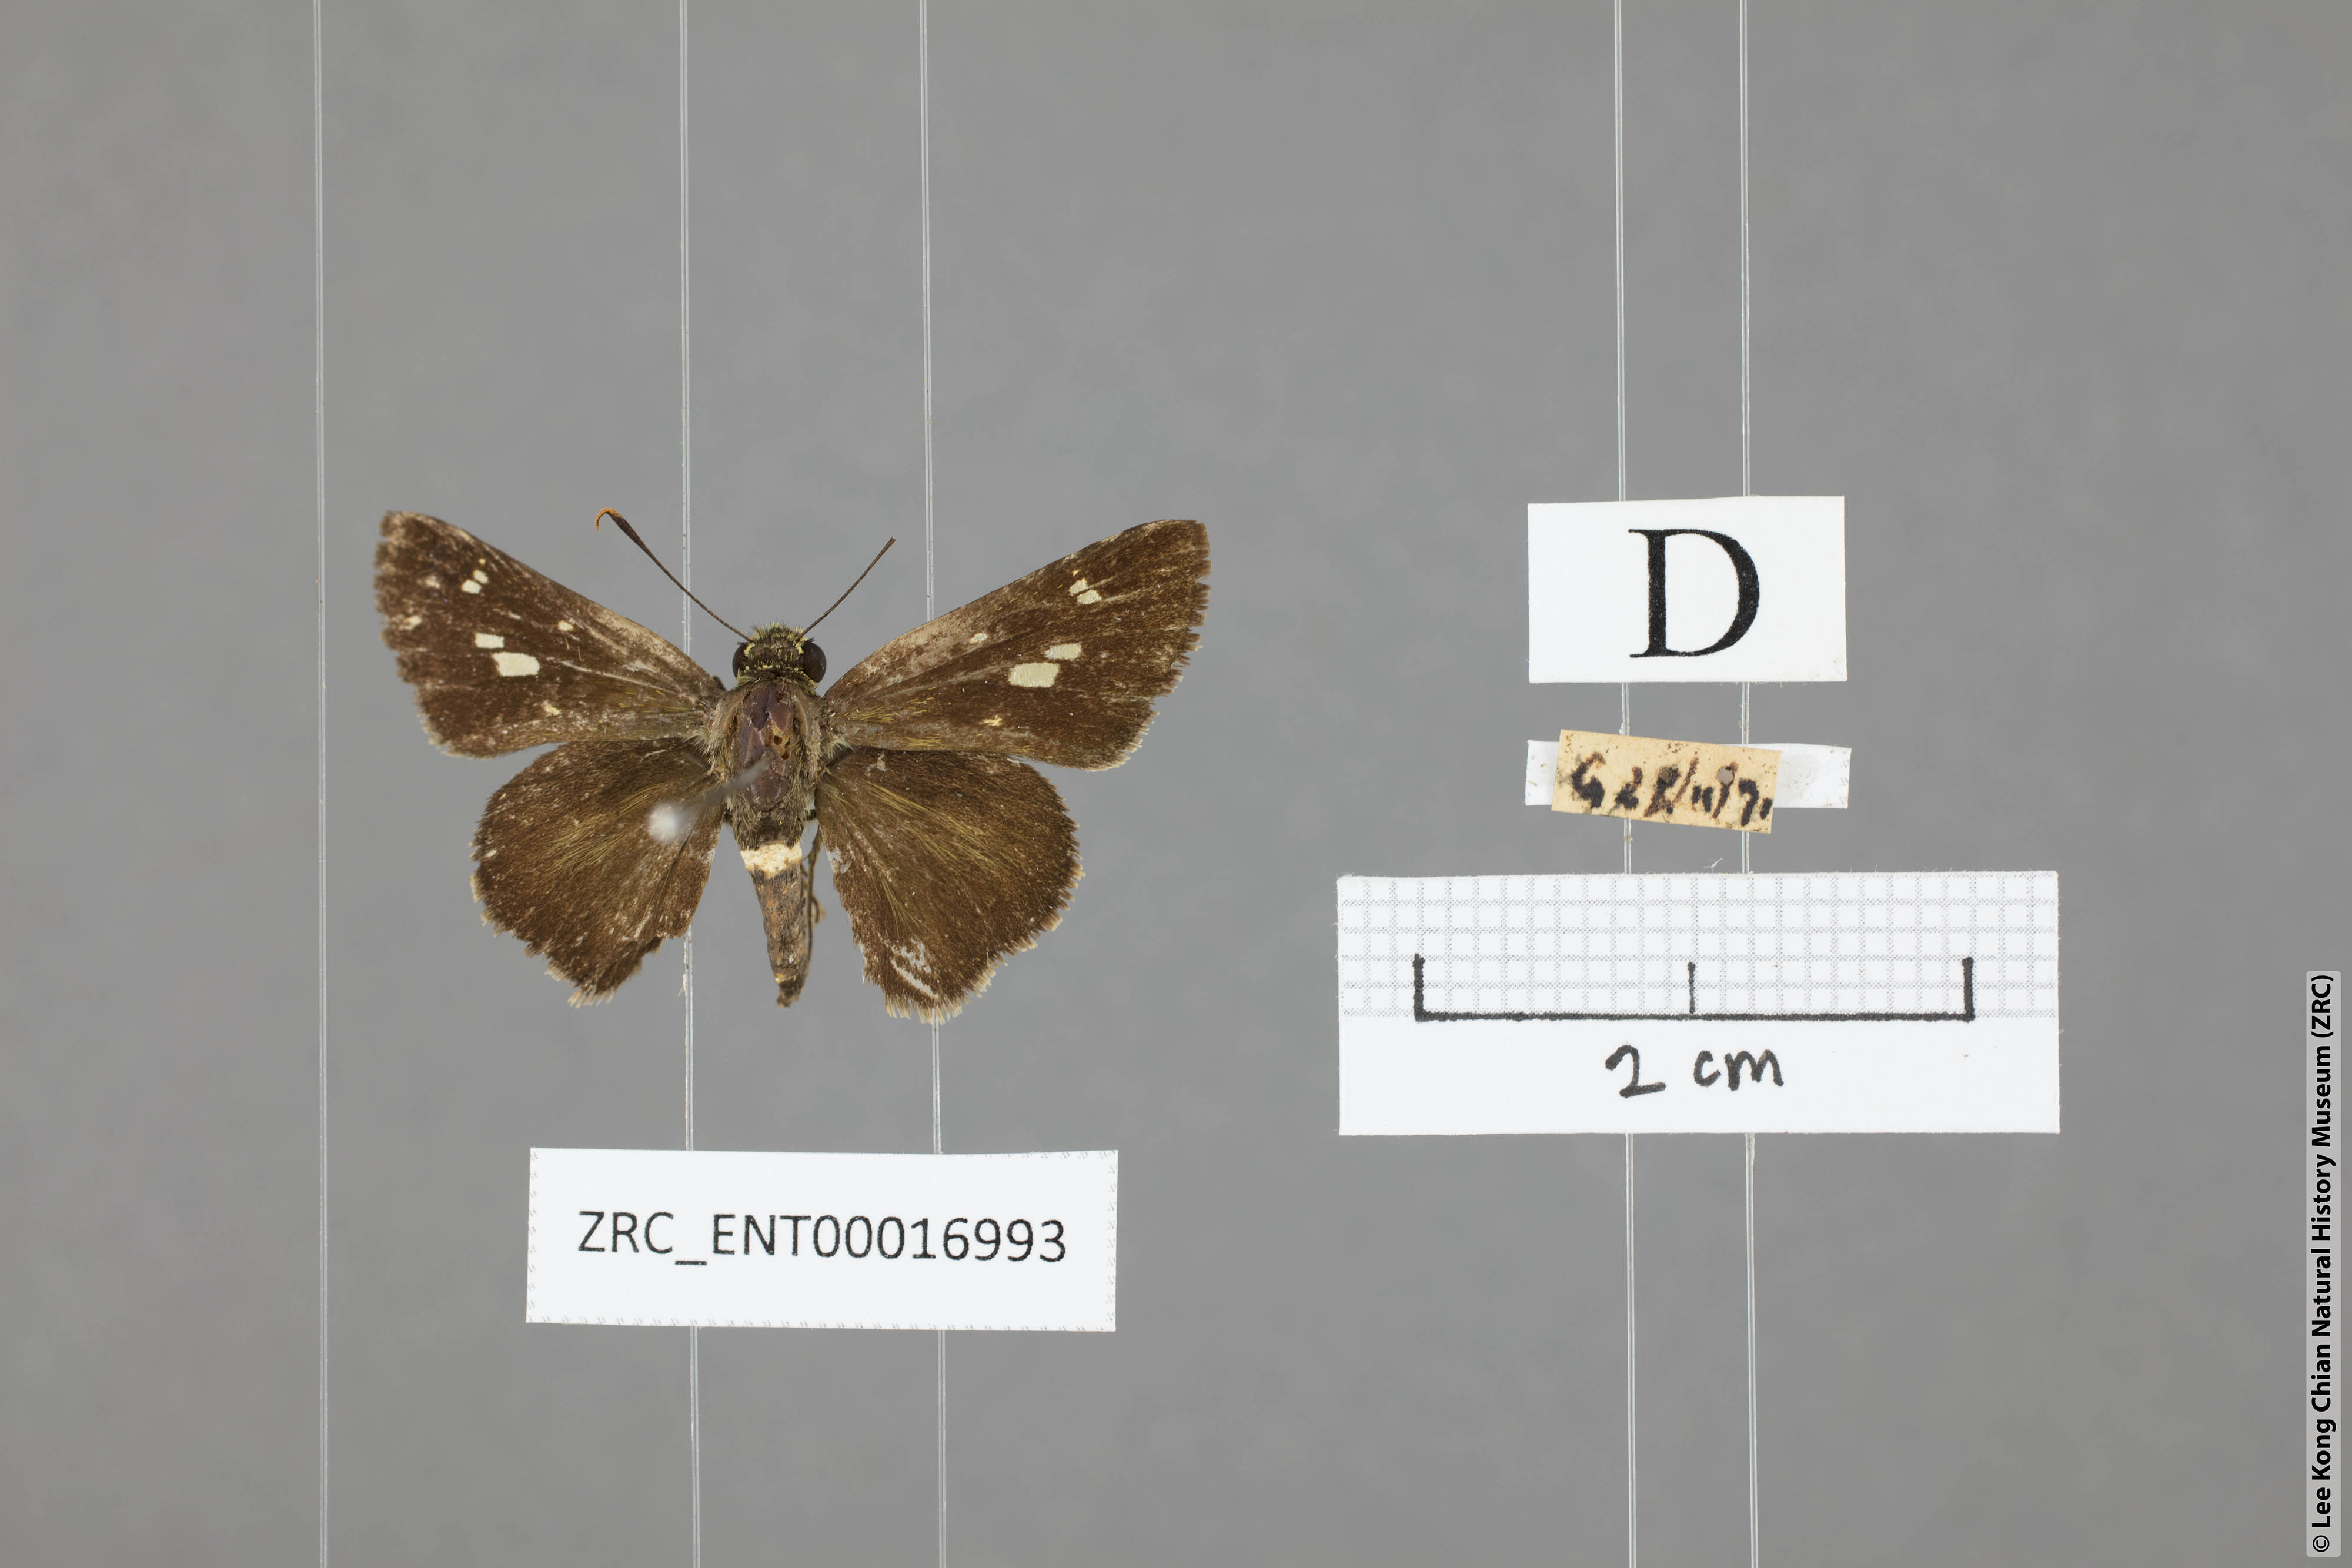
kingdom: Animalia
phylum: Arthropoda
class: Insecta
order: Lepidoptera
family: Hesperiidae
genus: Halpe
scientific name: Halpe flava
